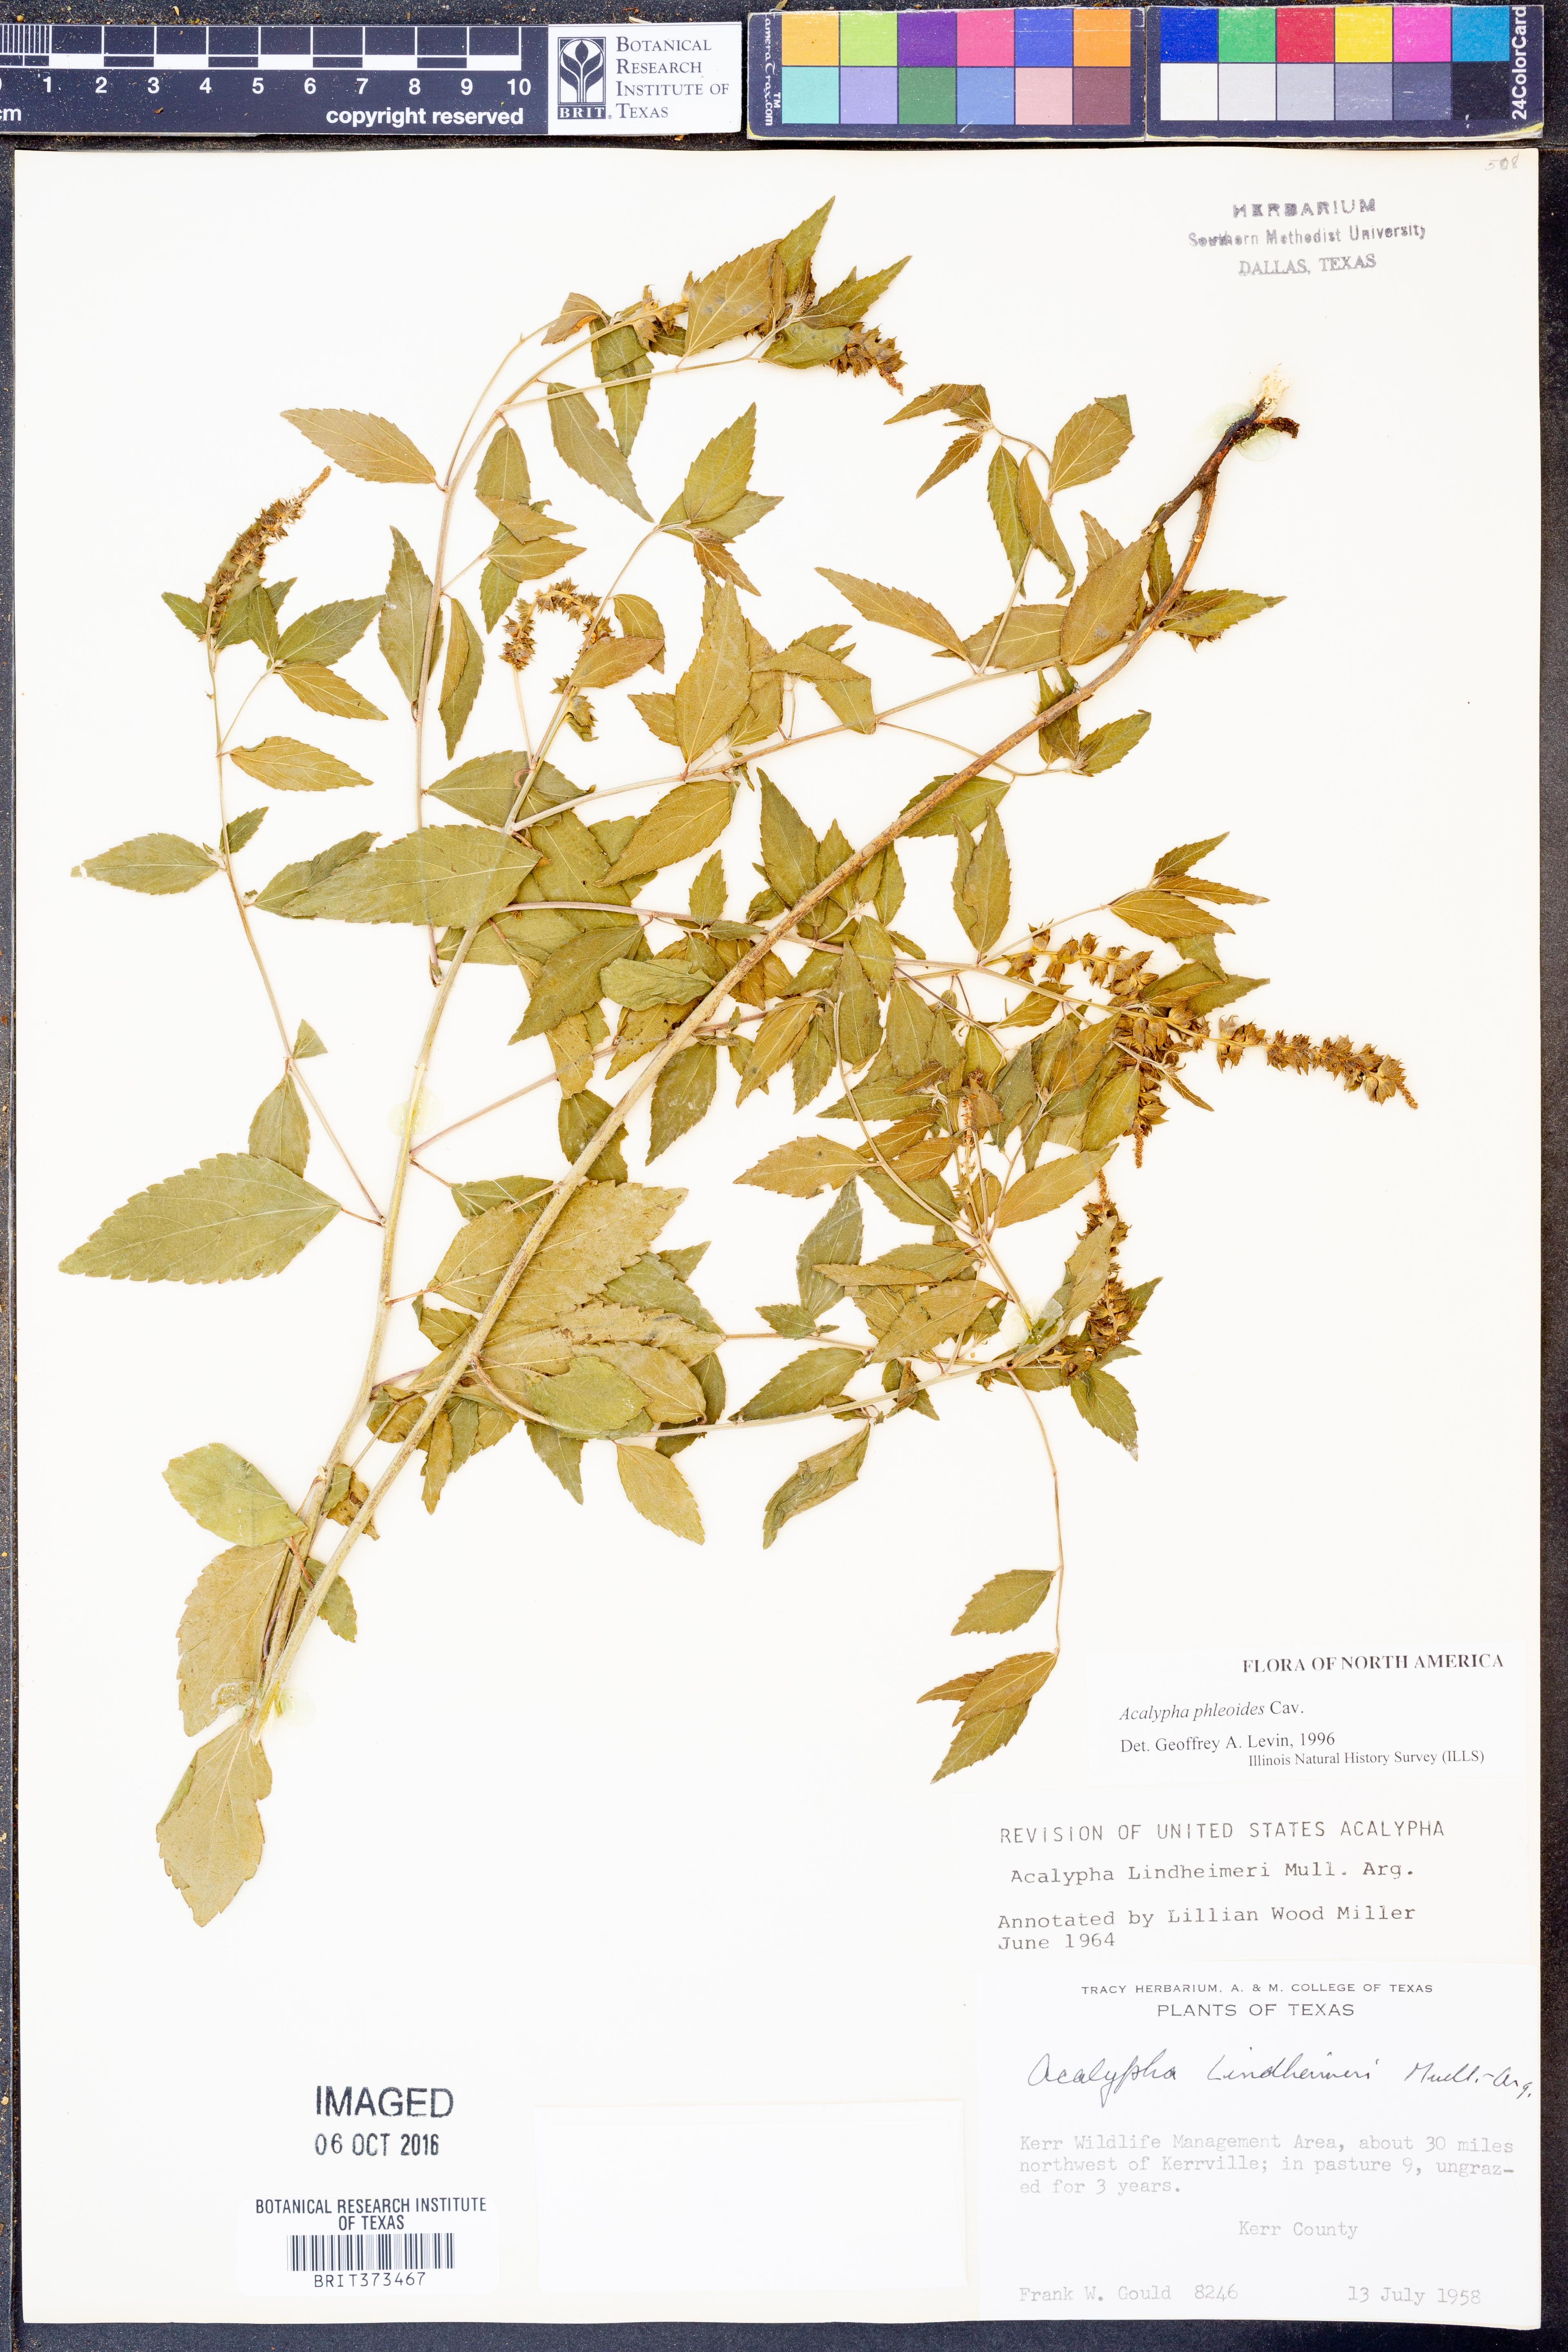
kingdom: Plantae
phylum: Tracheophyta
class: Magnoliopsida
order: Malpighiales
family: Euphorbiaceae
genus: Acalypha
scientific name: Acalypha phleoides
